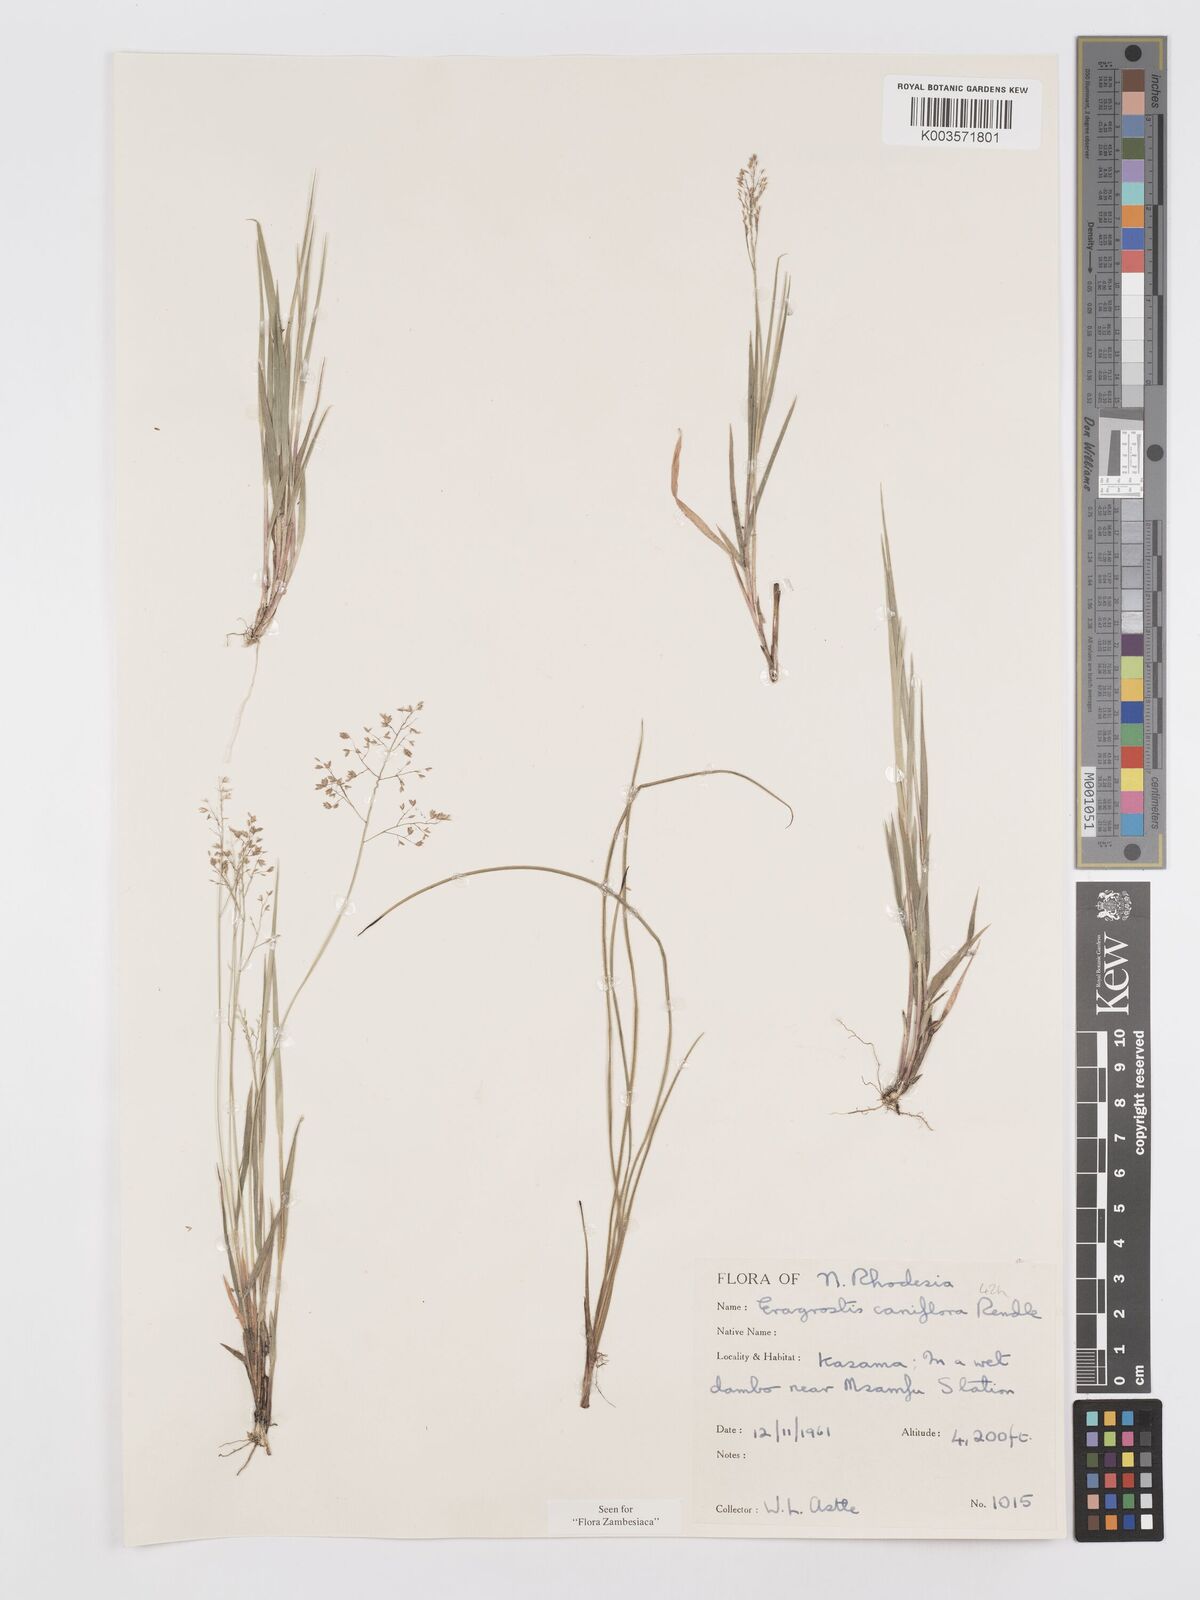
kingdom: Plantae
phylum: Tracheophyta
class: Liliopsida
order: Poales
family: Poaceae
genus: Eragrostis
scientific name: Eragrostis caniflora
